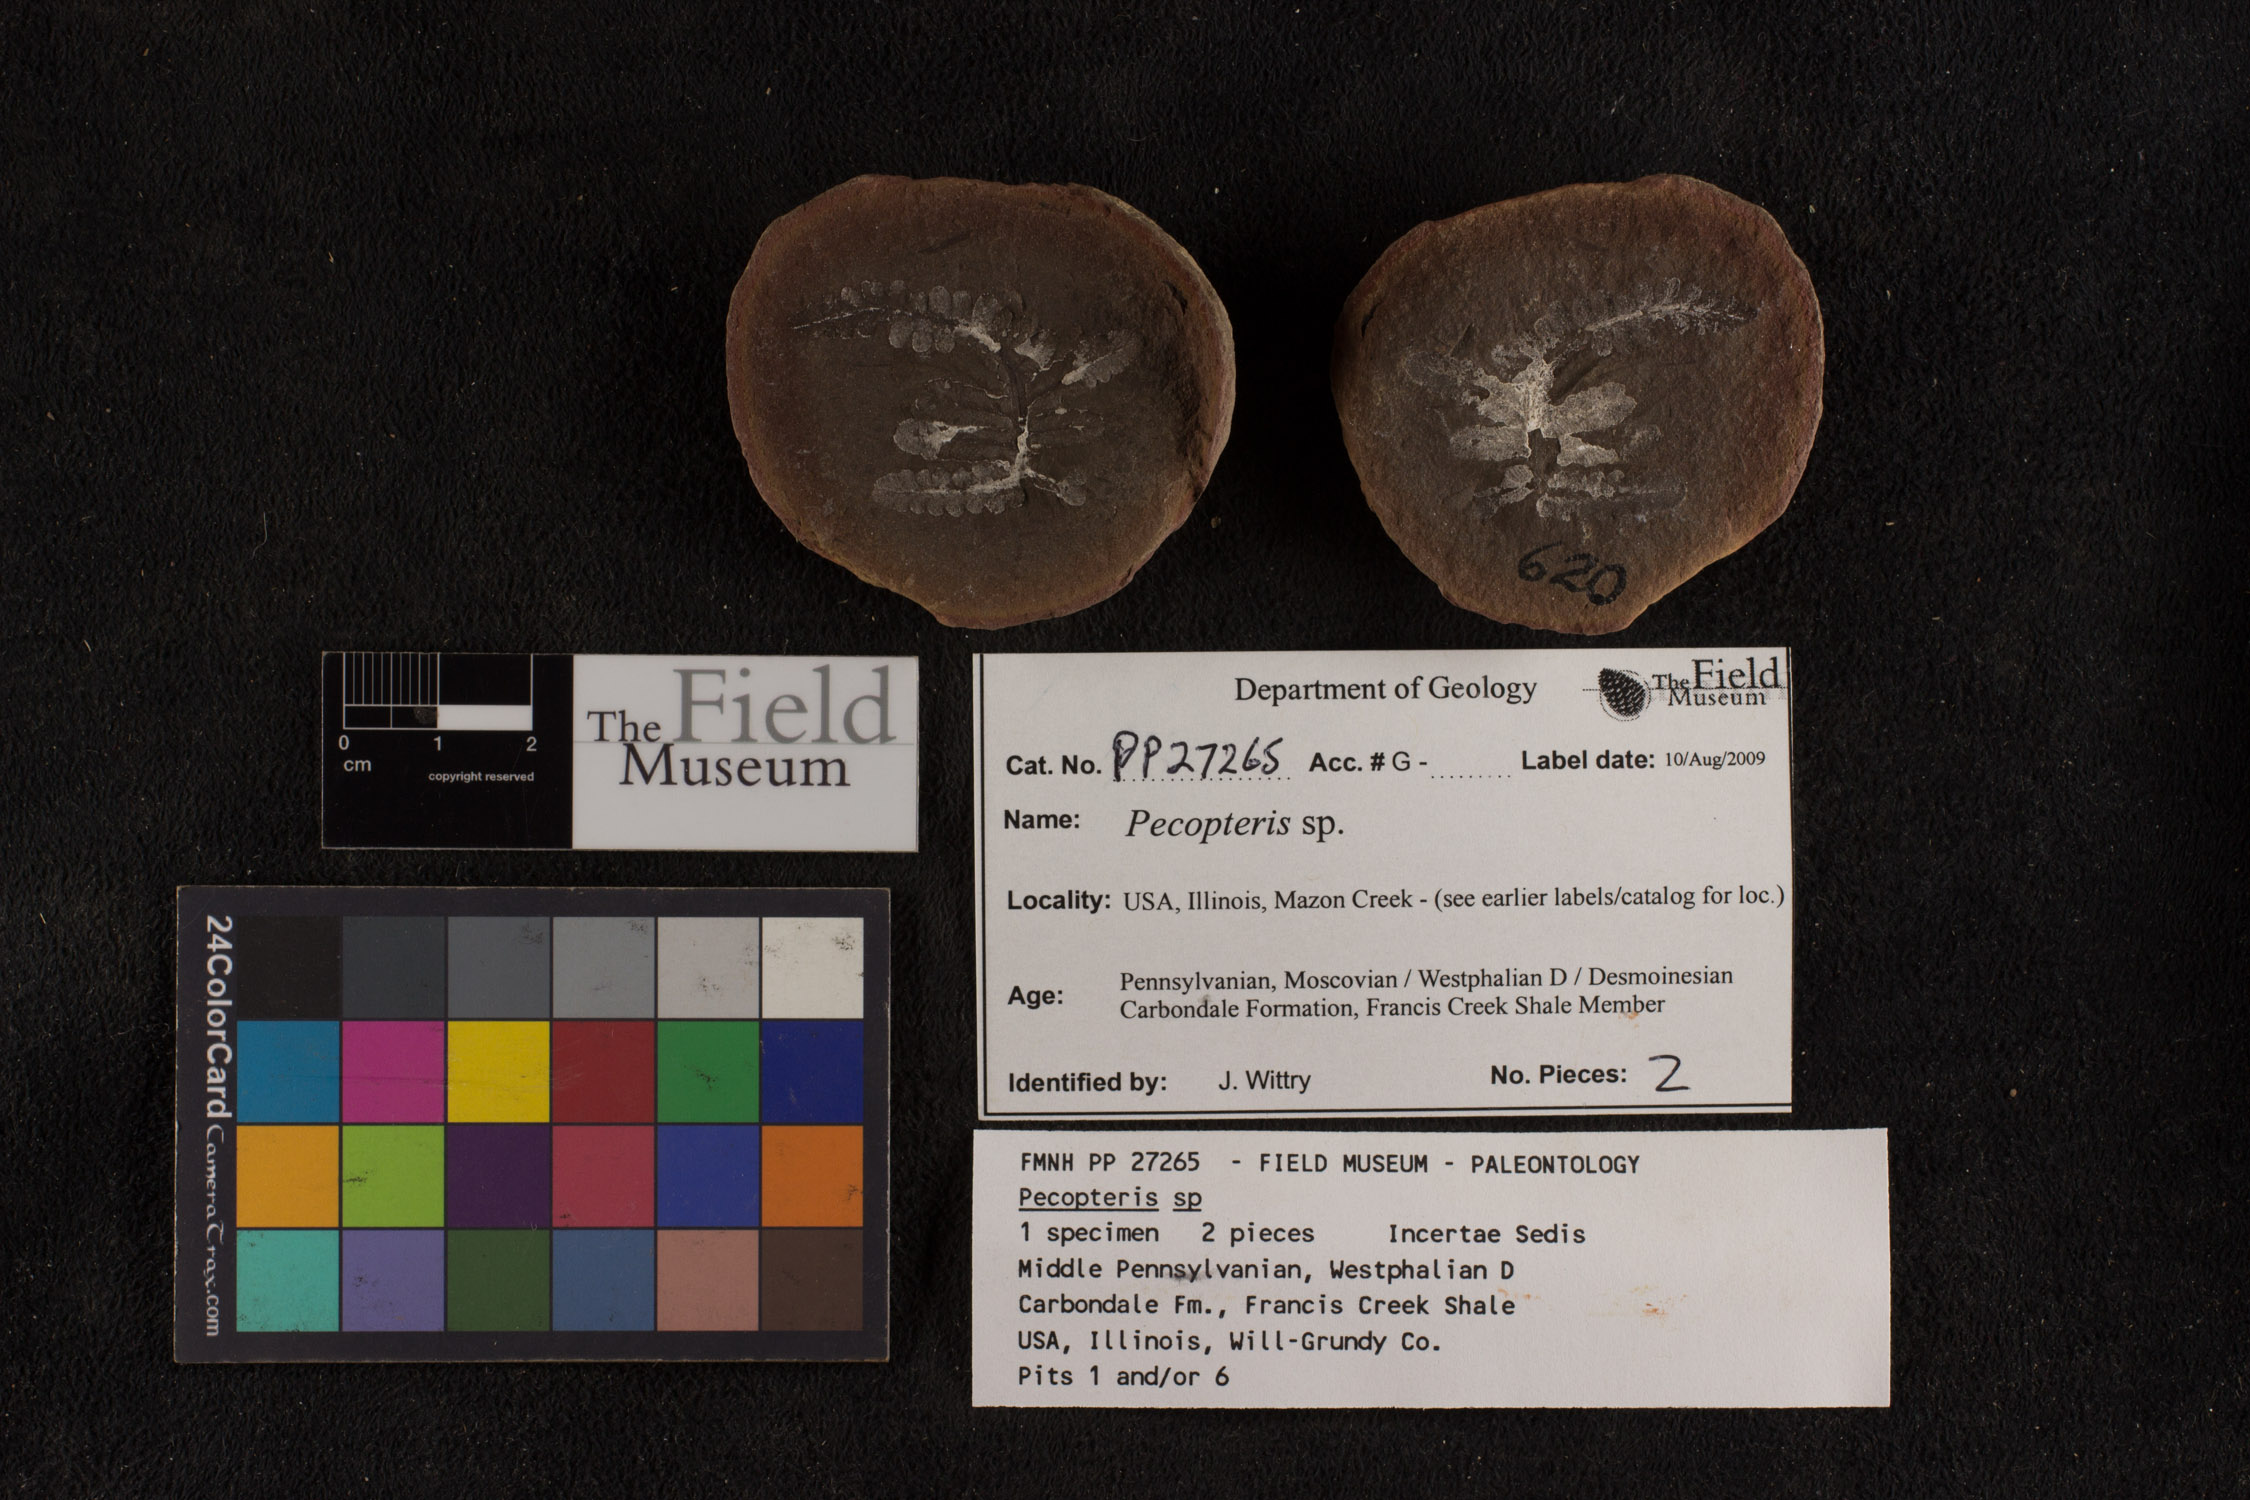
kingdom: Plantae
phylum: Tracheophyta
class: Polypodiopsida
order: Marattiales
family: Asterothecaceae
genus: Pecopteris
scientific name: Pecopteris
